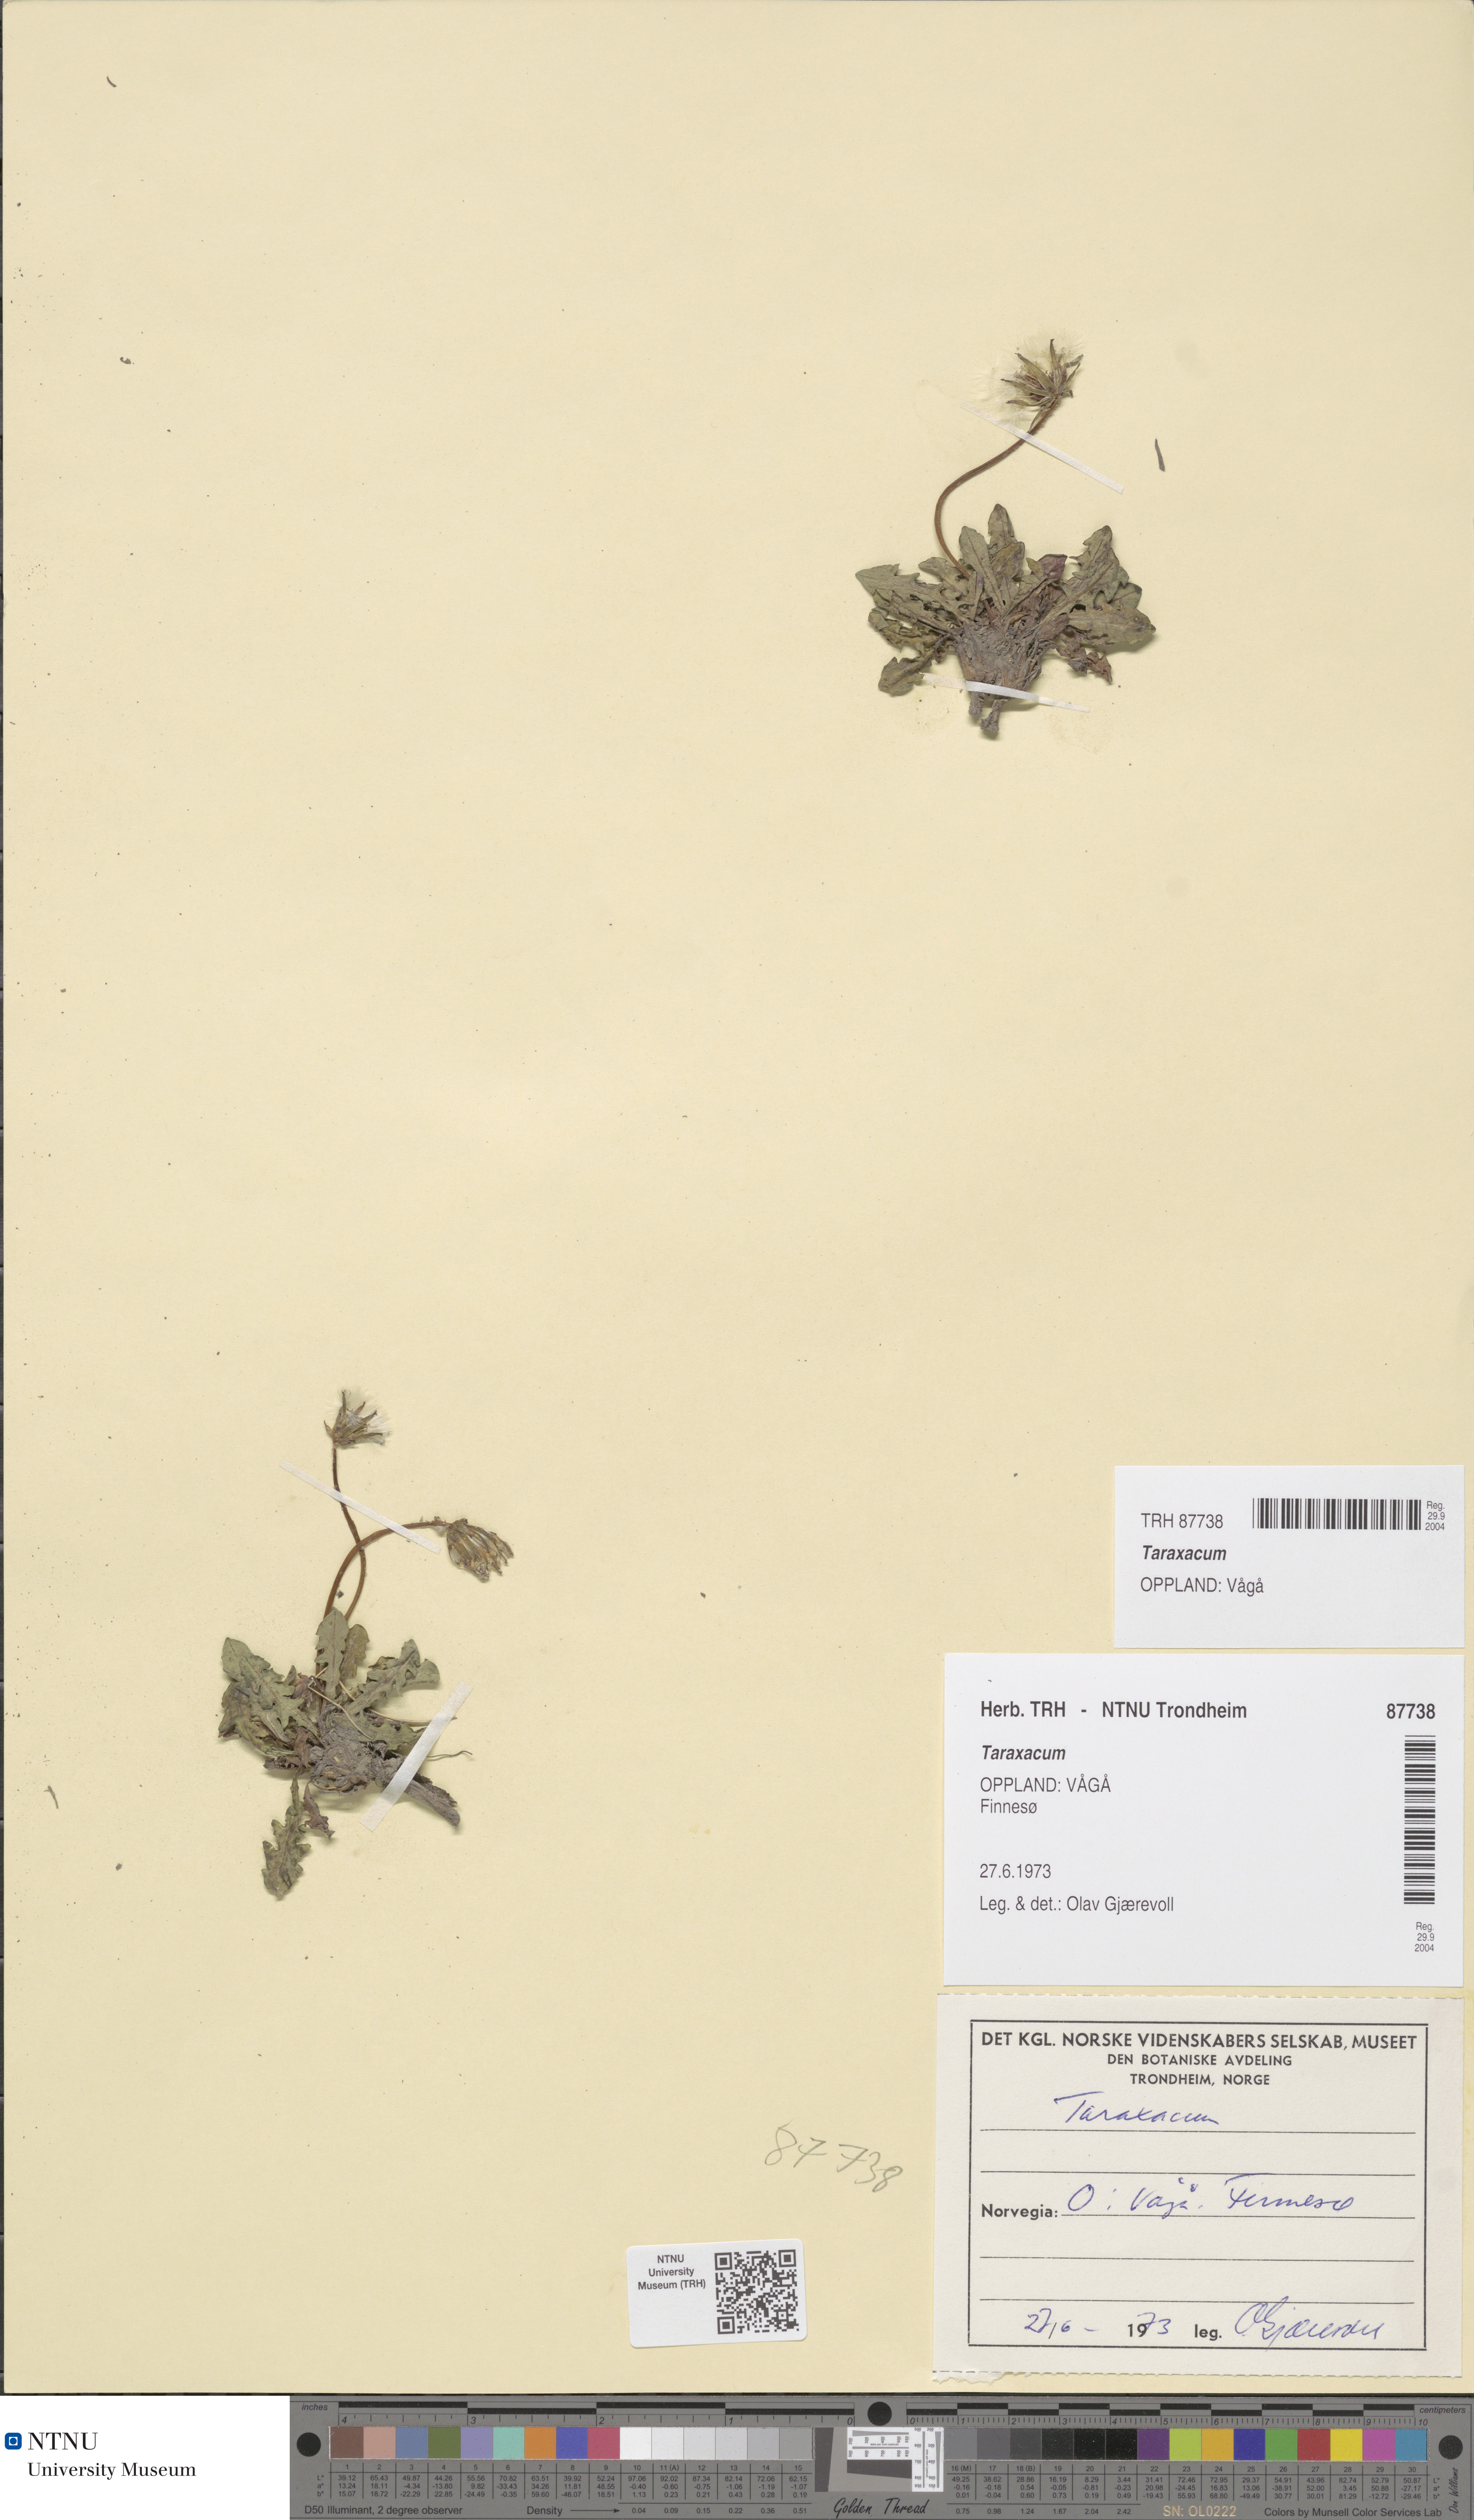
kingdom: Plantae
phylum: Tracheophyta
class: Magnoliopsida
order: Asterales
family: Asteraceae
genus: Taraxacum
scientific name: Taraxacum
